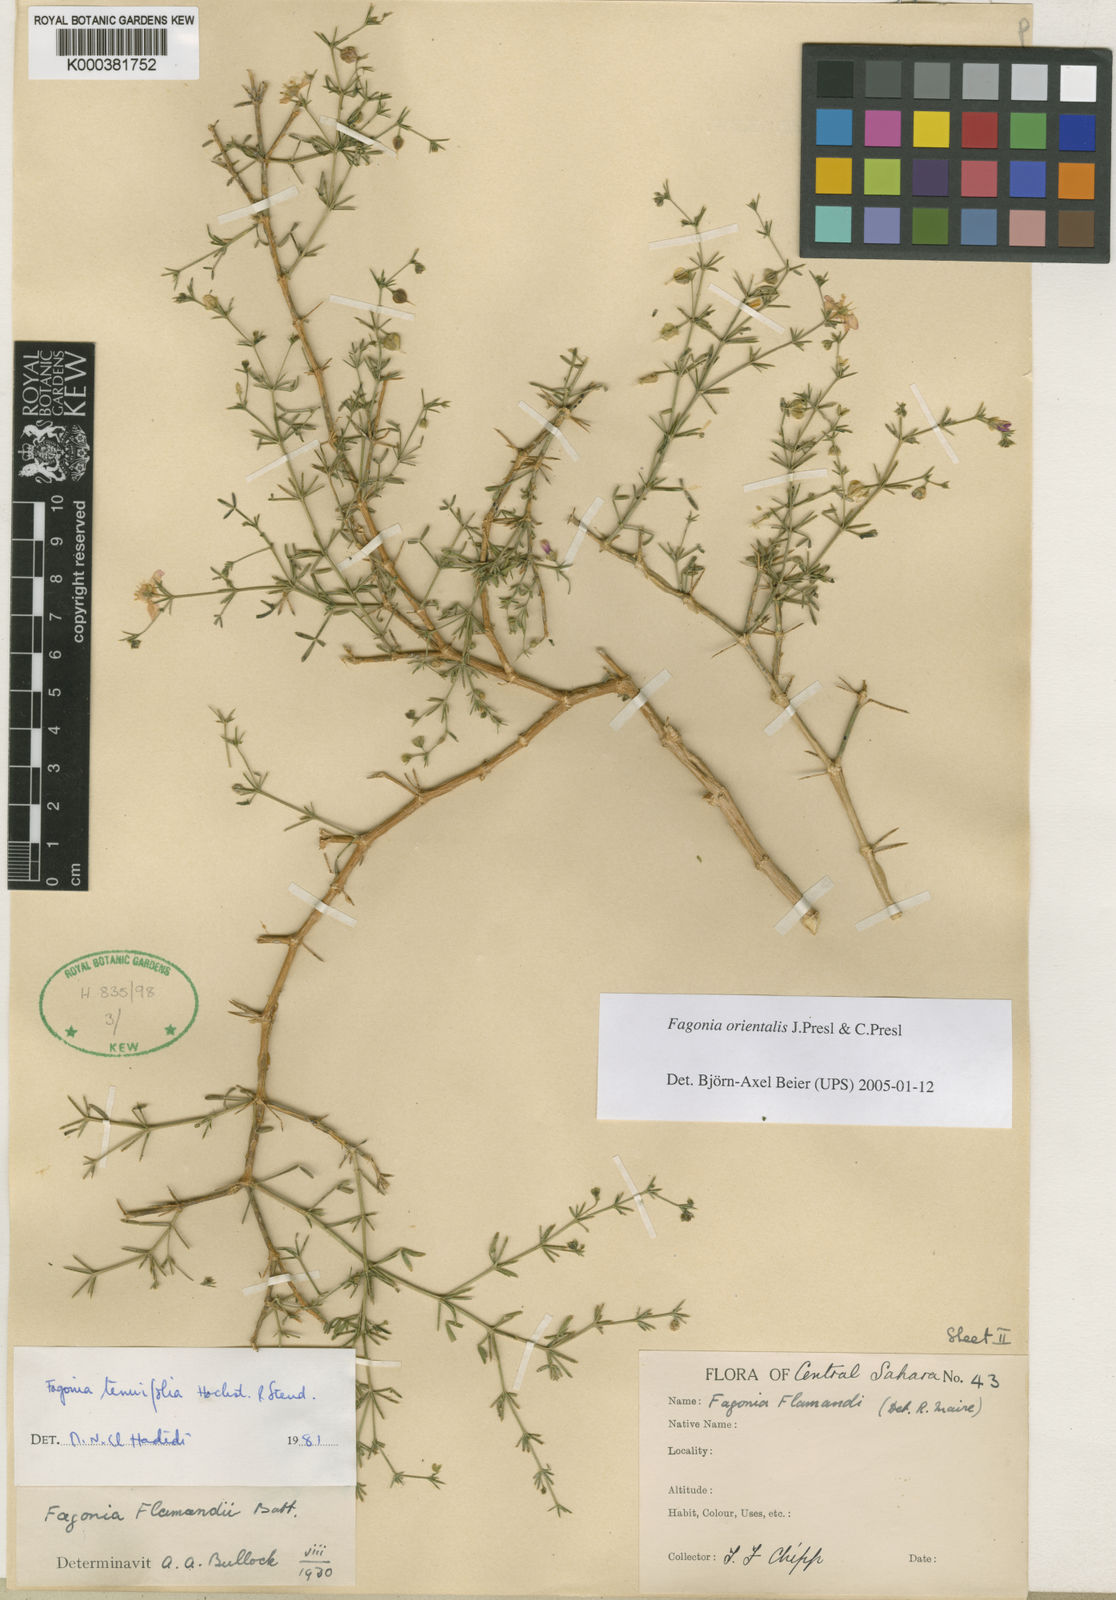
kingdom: Plantae
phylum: Tracheophyta
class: Magnoliopsida
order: Zygophyllales
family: Zygophyllaceae
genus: Fagonia
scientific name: Fagonia orientalis
